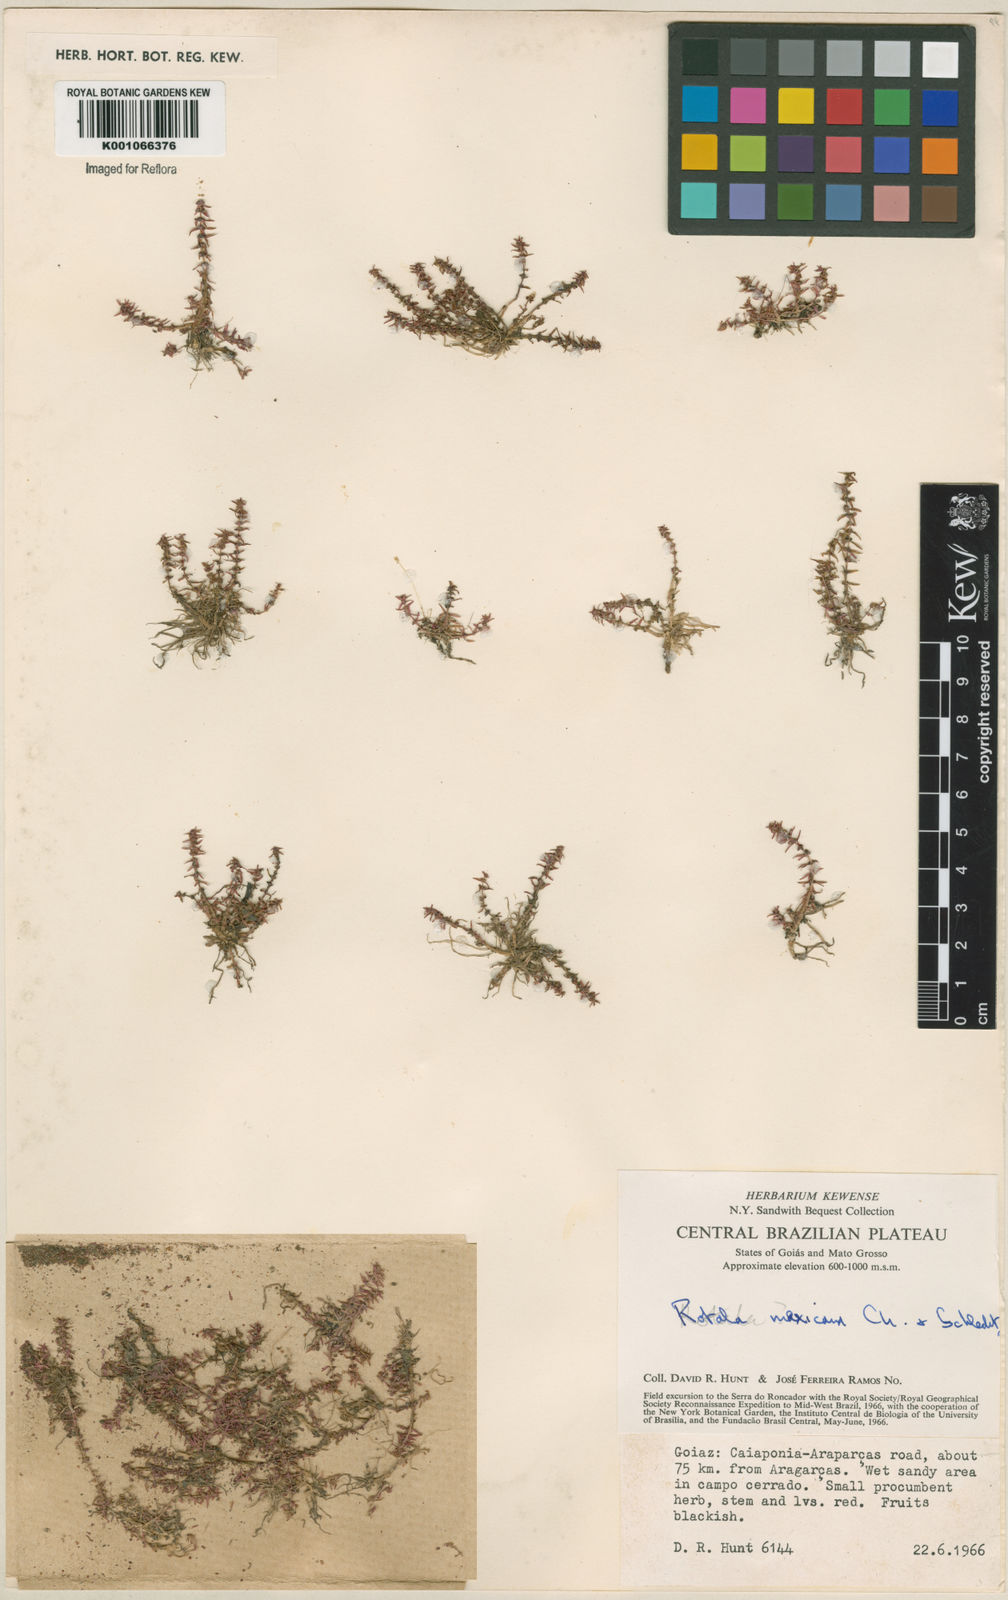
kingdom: Plantae
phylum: Tracheophyta
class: Magnoliopsida
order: Myrtales
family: Lythraceae
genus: Rotala
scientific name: Rotala mexicana
